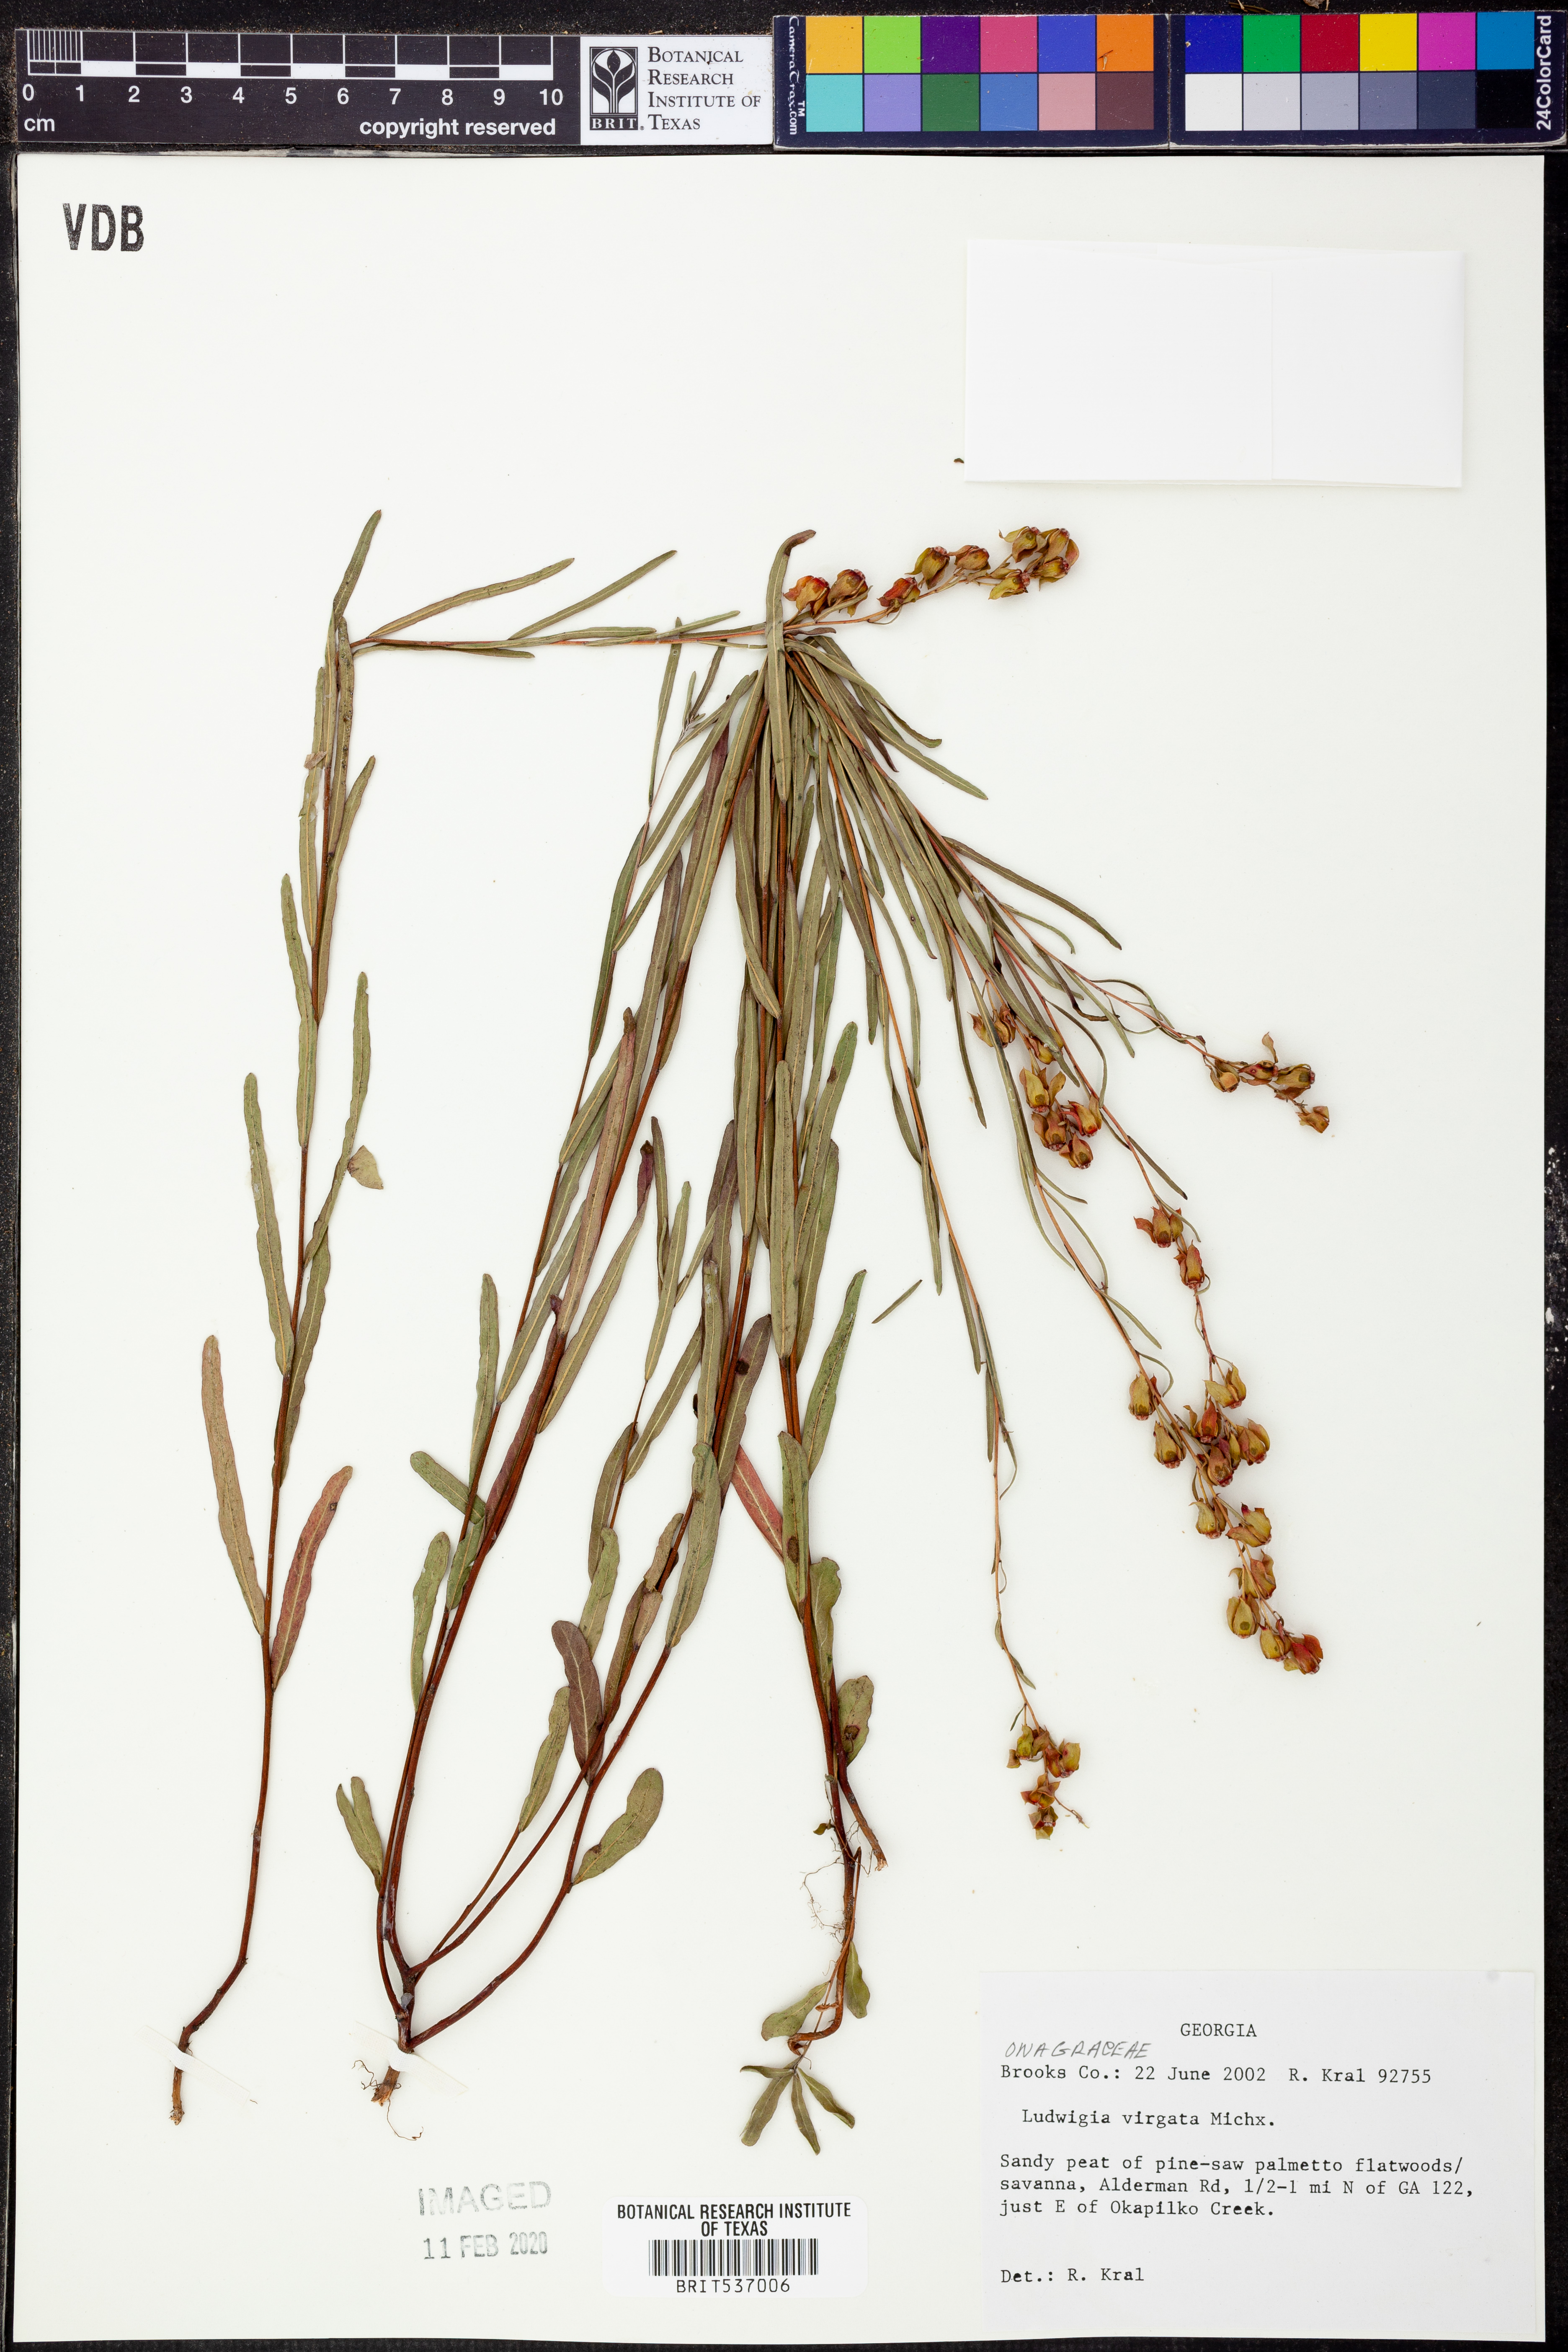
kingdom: Plantae
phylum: Tracheophyta
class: Magnoliopsida
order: Myrtales
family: Onagraceae
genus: Ludwigia
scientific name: Ludwigia virgata
